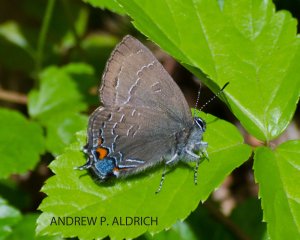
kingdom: Animalia
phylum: Arthropoda
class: Insecta
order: Lepidoptera
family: Lycaenidae
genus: Satyrium
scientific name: Satyrium calanus
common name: Banded Hairstreak
